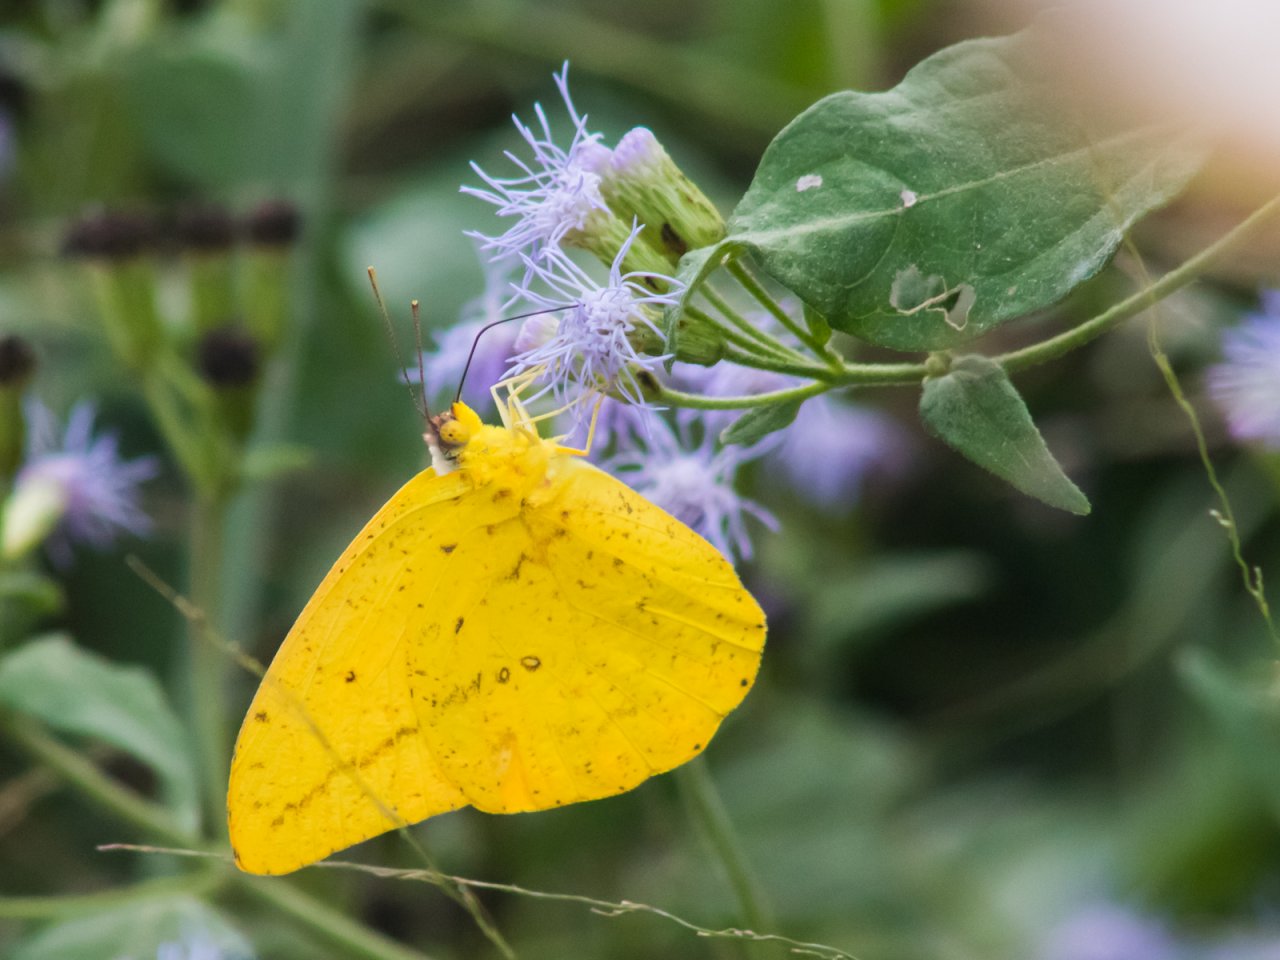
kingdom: Animalia
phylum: Arthropoda
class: Insecta
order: Lepidoptera
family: Pieridae
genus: Phoebis
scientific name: Phoebis agarithe
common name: Large Orange Sulphur
